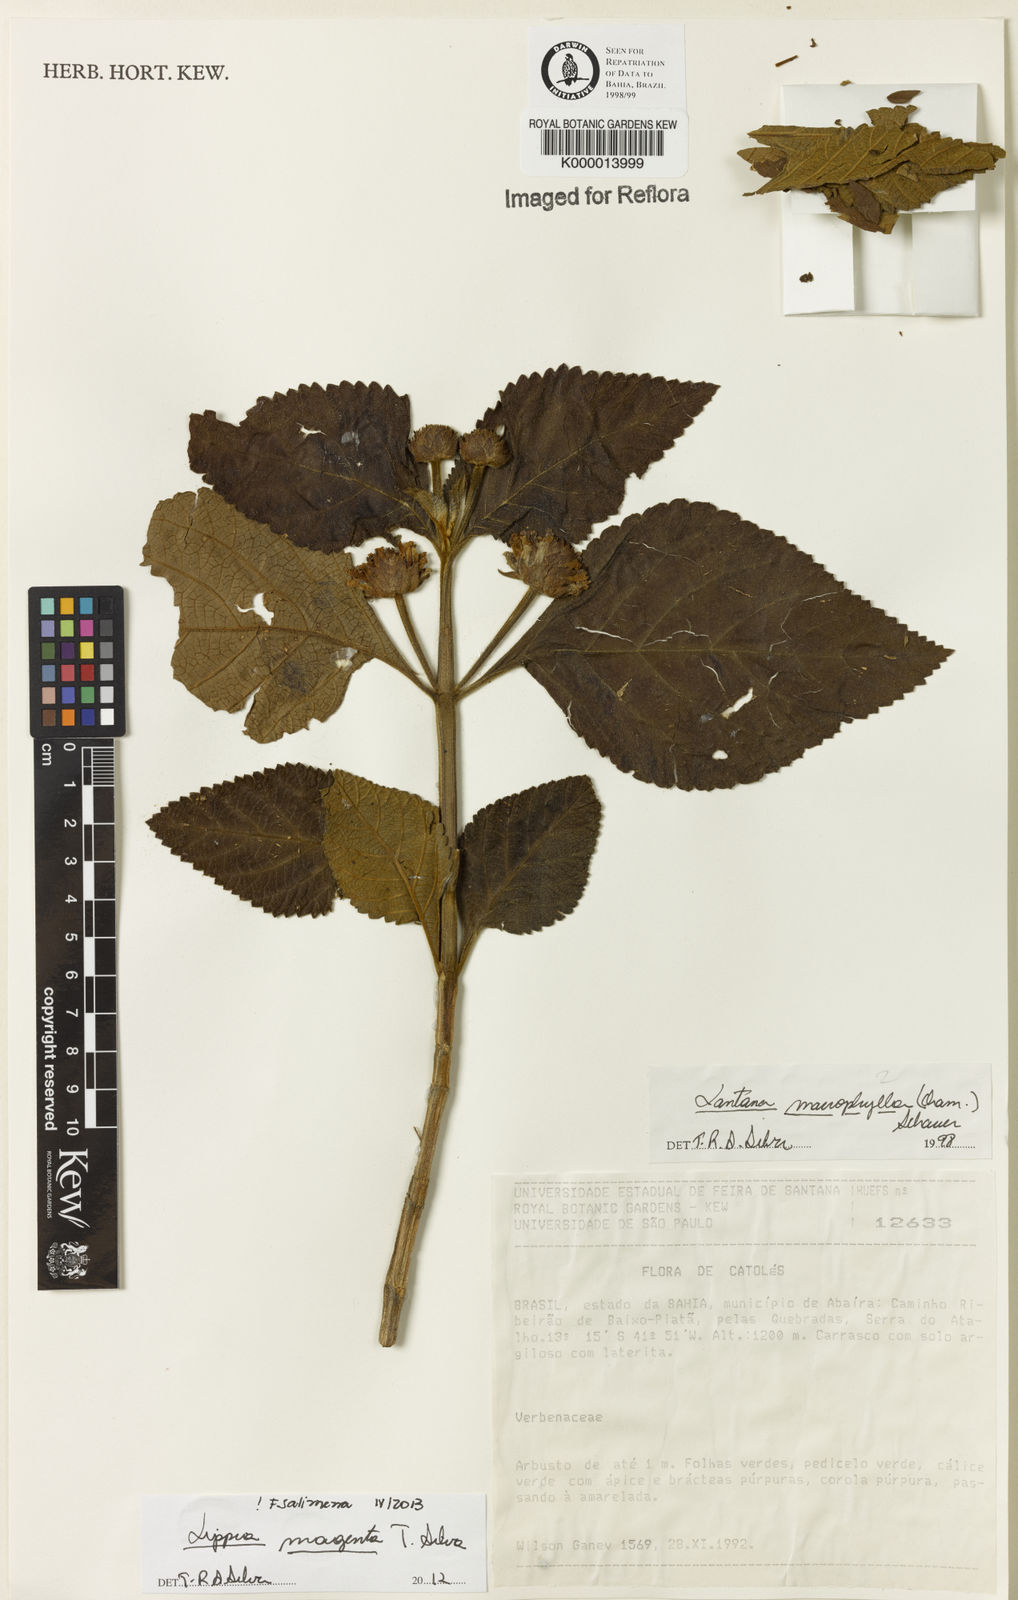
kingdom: Plantae
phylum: Tracheophyta
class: Magnoliopsida
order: Lamiales
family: Verbenaceae
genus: Lippia
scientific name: Lippia
